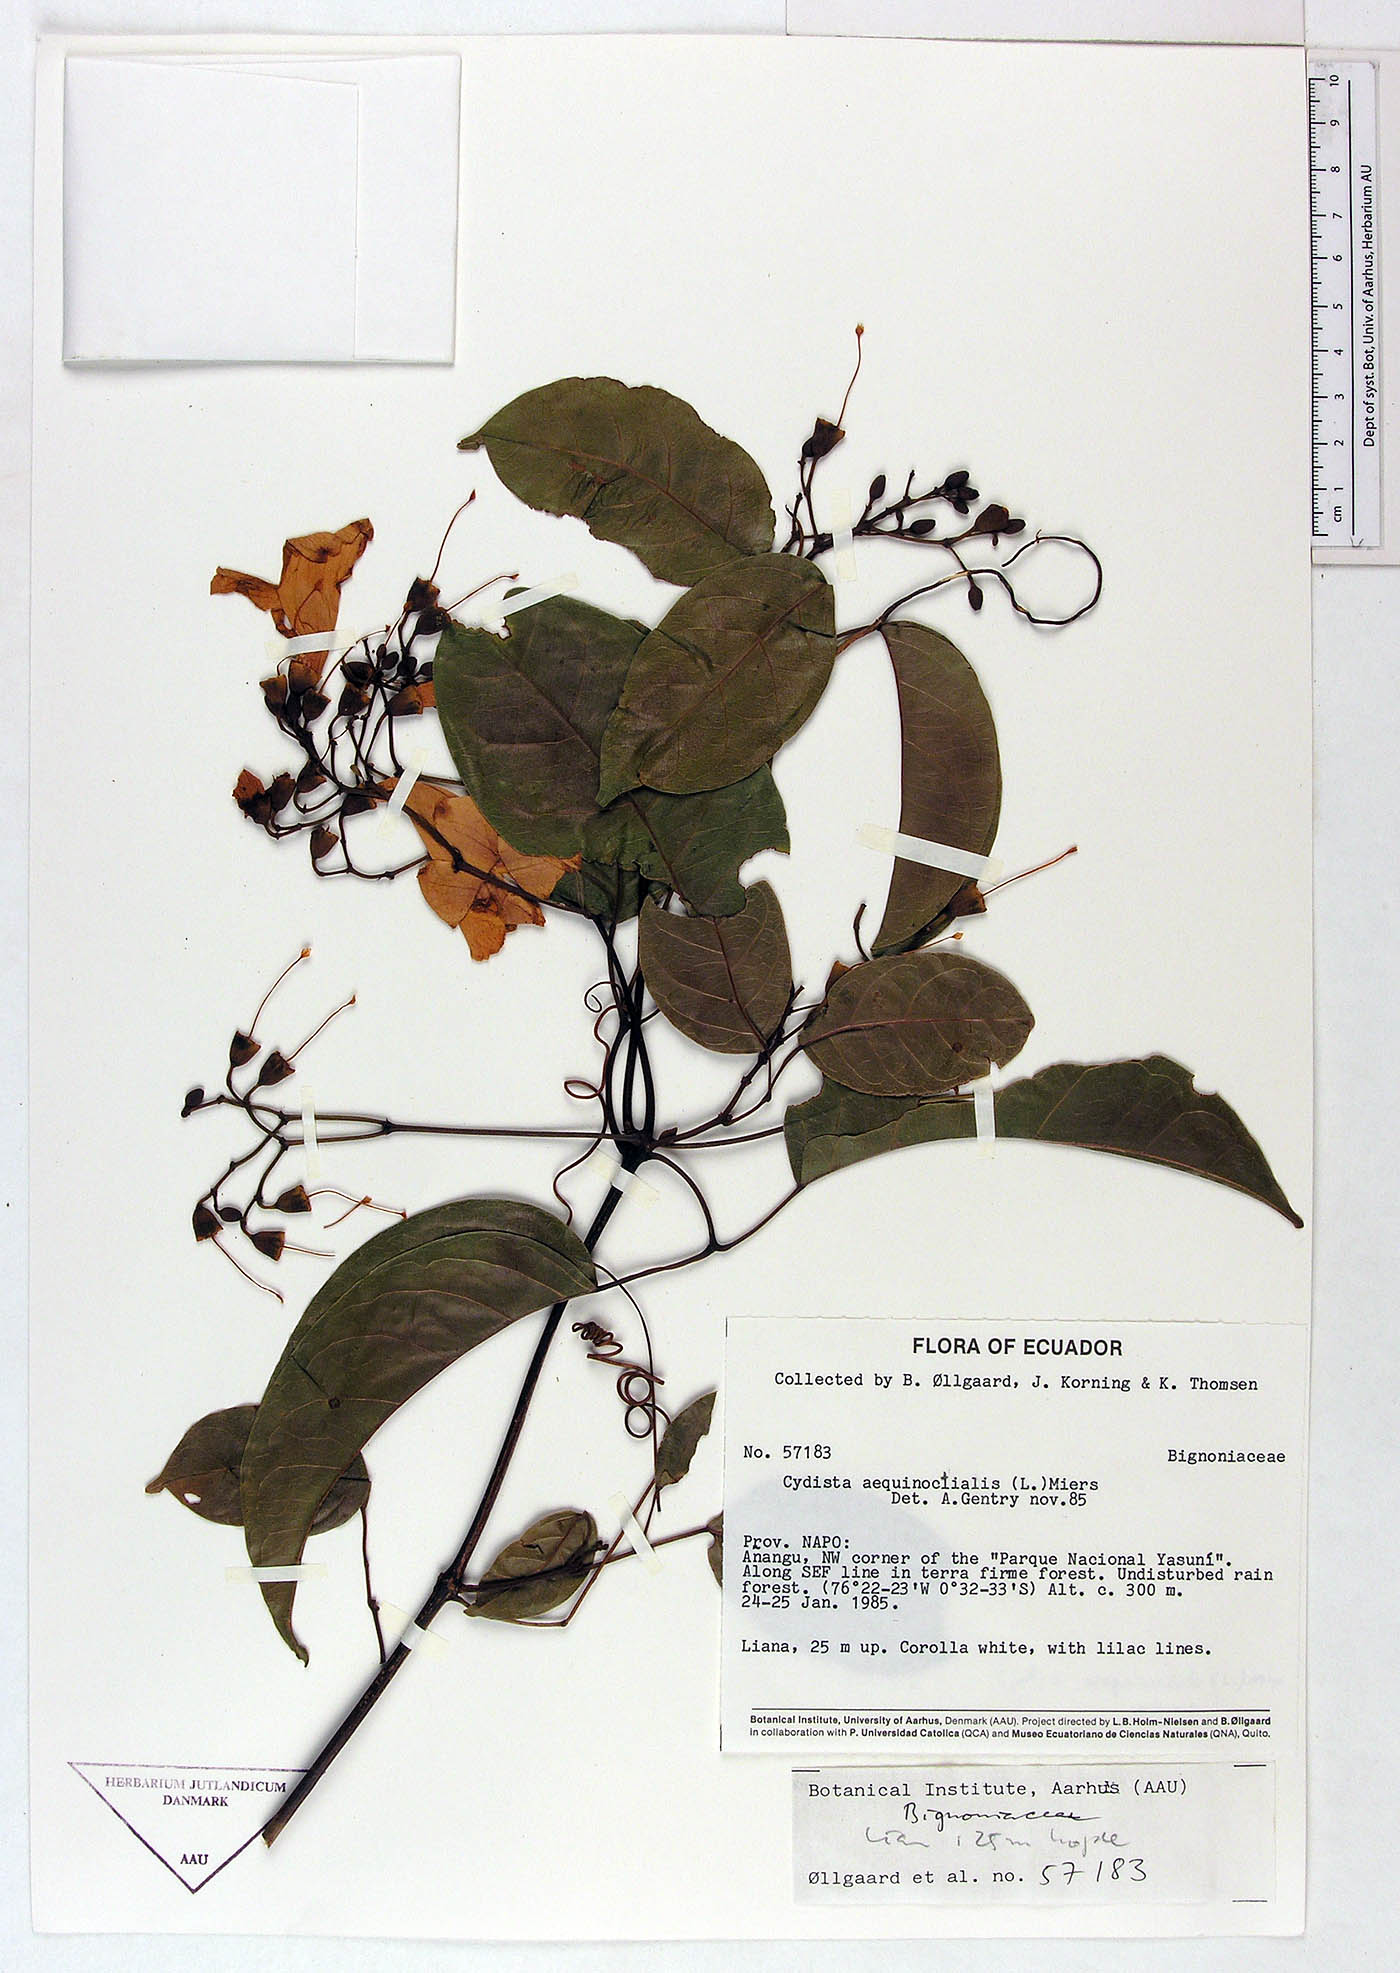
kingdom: Plantae
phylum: Tracheophyta
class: Magnoliopsida
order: Lamiales
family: Bignoniaceae
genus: Bignonia
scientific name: Bignonia aequinoctialis
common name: Garlicvine
